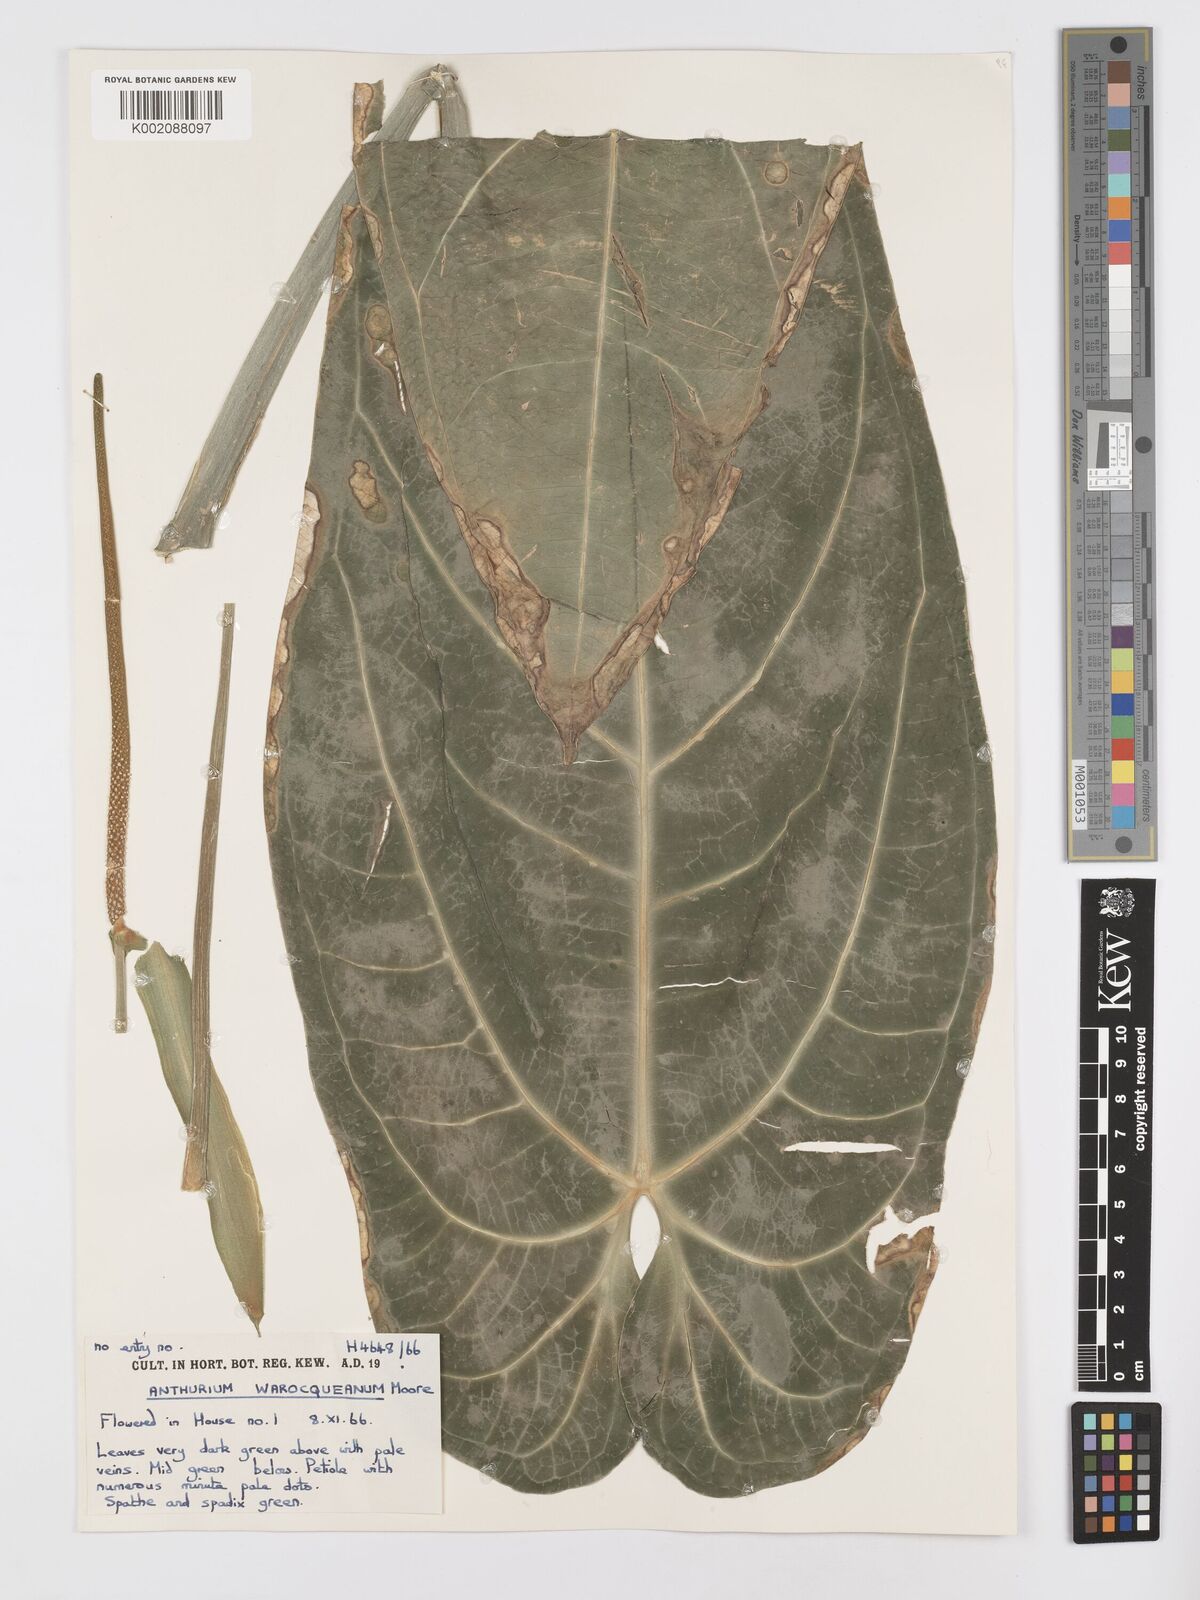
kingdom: Plantae
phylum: Tracheophyta
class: Liliopsida
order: Alismatales
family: Araceae
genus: Anthurium
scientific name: Anthurium warocqueanum
